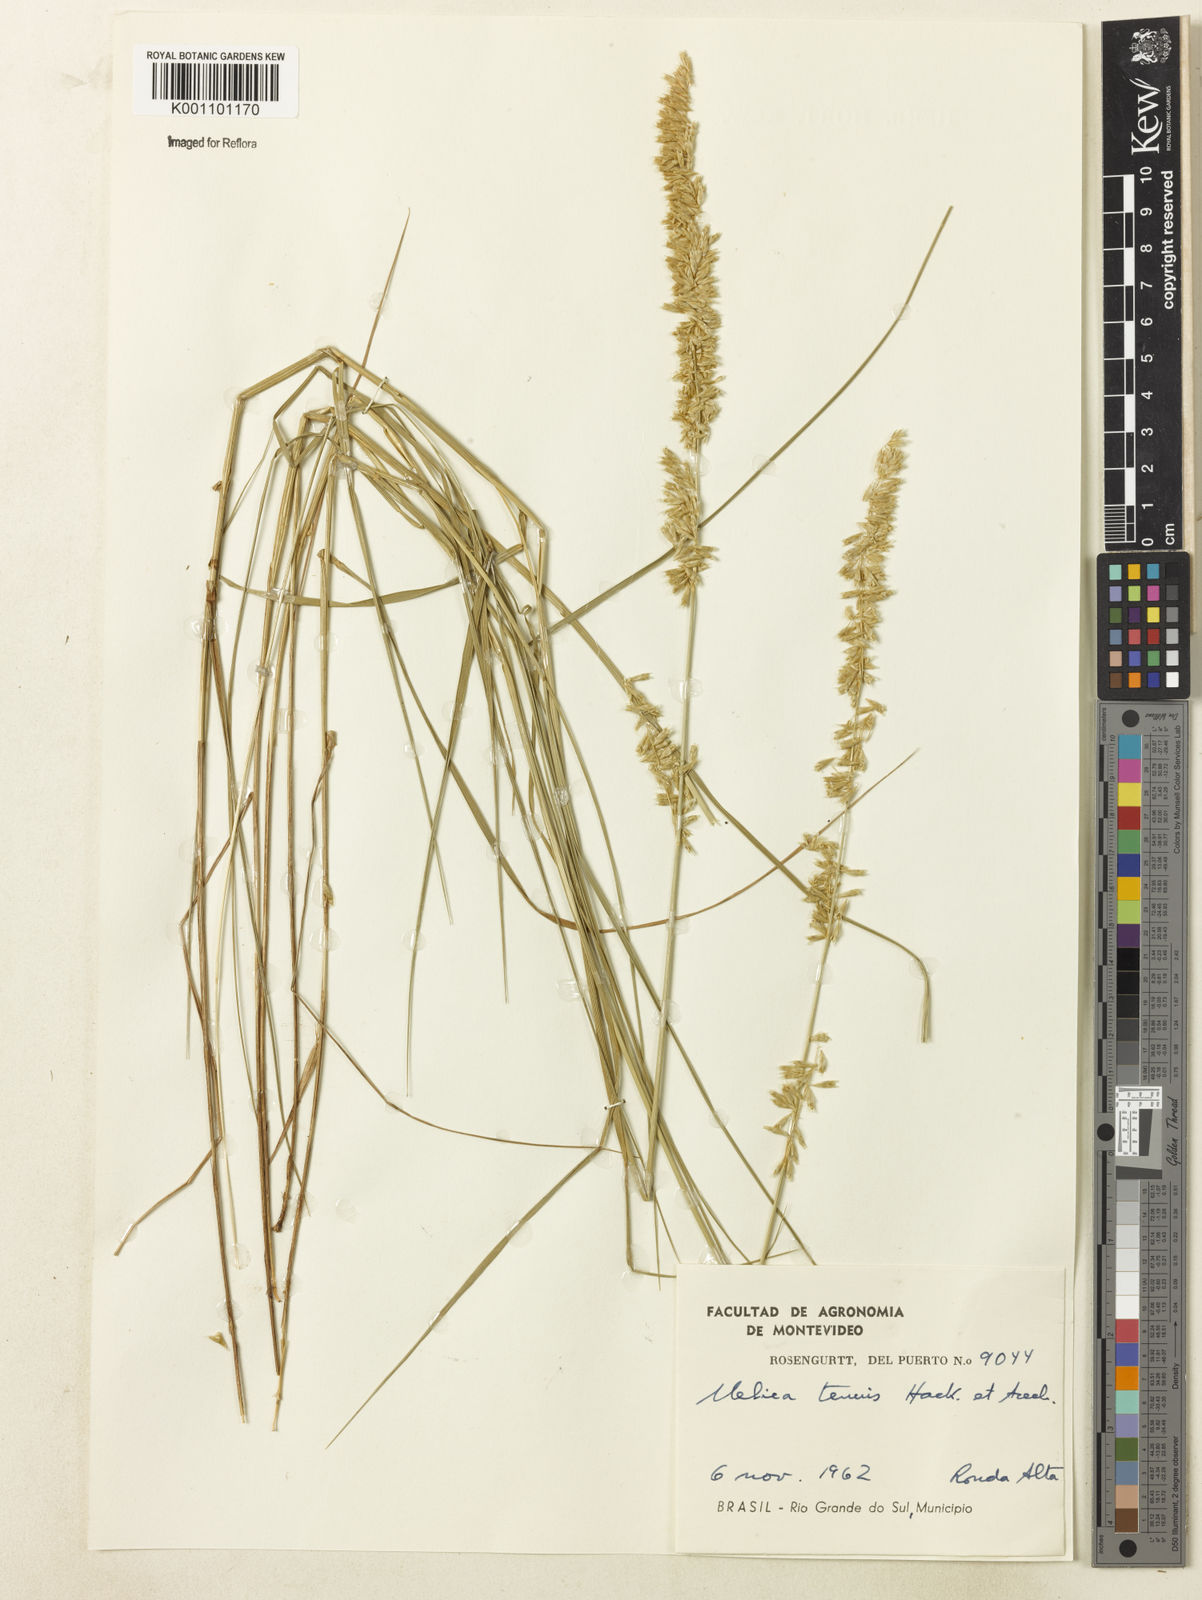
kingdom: Plantae
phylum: Tracheophyta
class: Liliopsida
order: Poales
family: Poaceae
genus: Melica
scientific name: Melica tenuis
